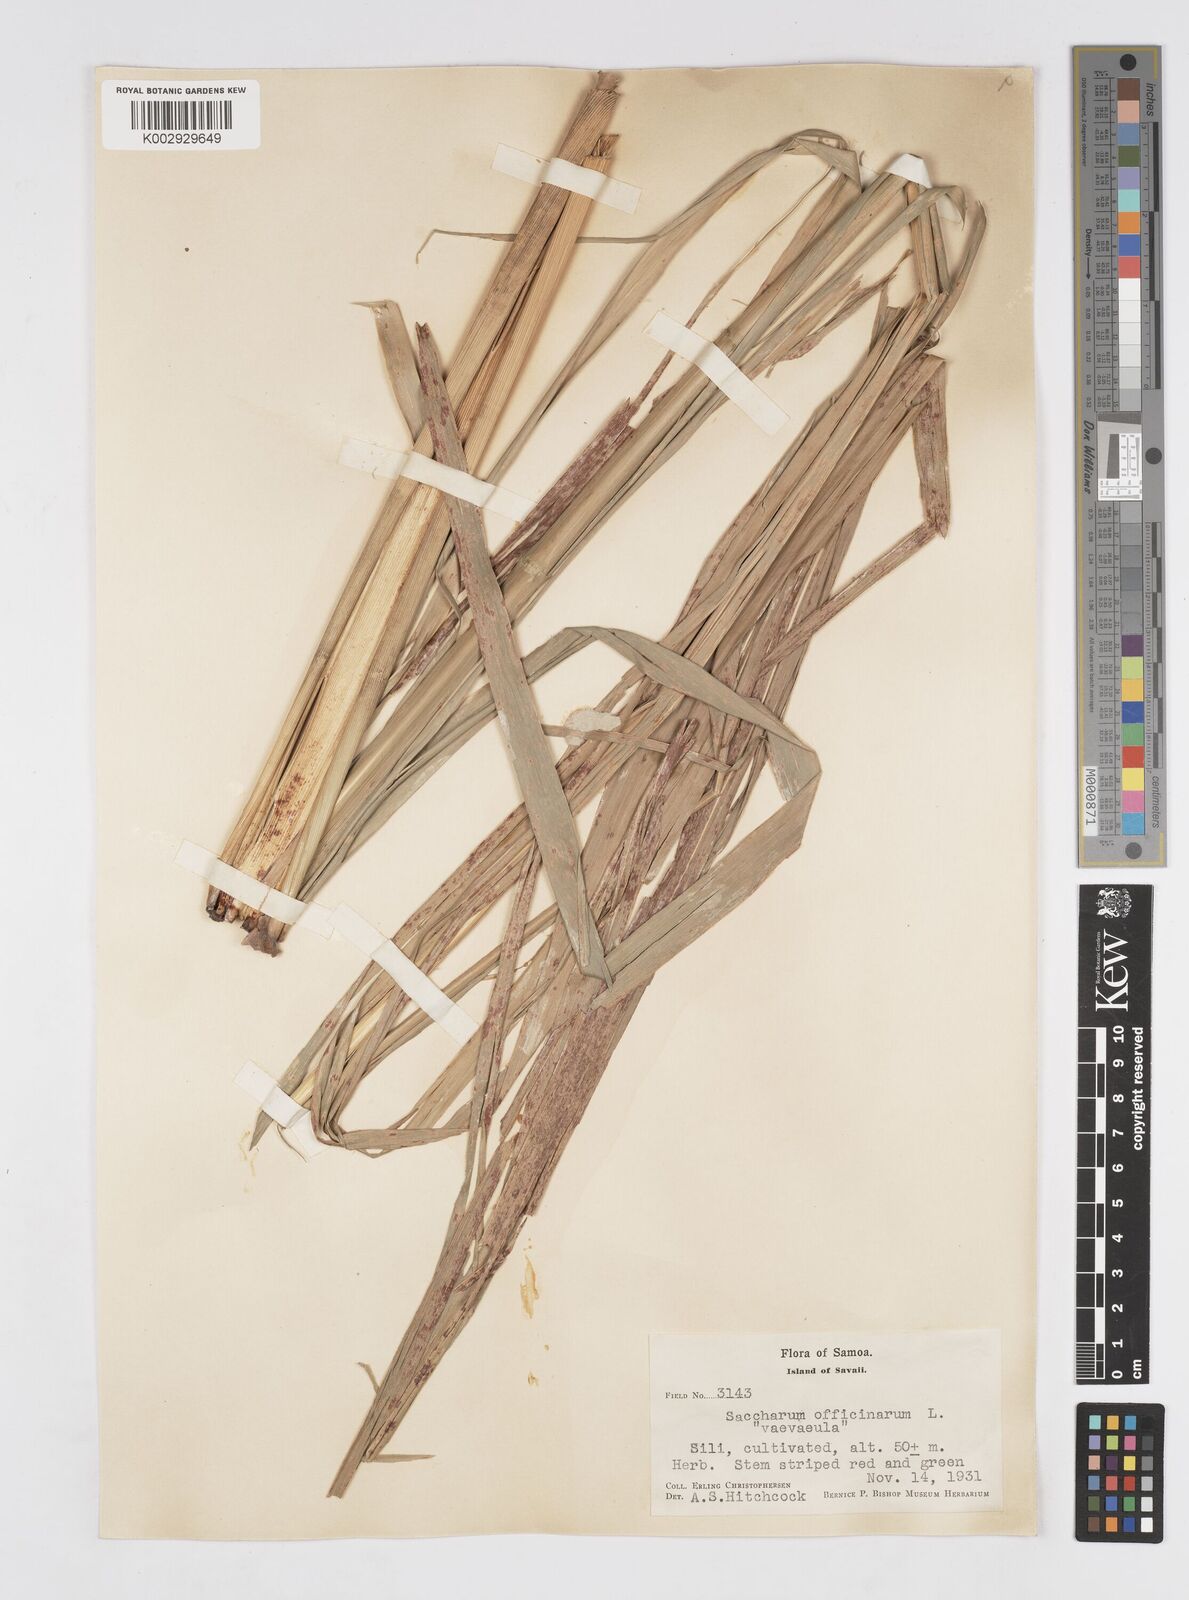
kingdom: Plantae
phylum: Tracheophyta
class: Liliopsida
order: Poales
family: Poaceae
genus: Saccharum
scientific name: Saccharum officinarum
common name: Sugarcane
